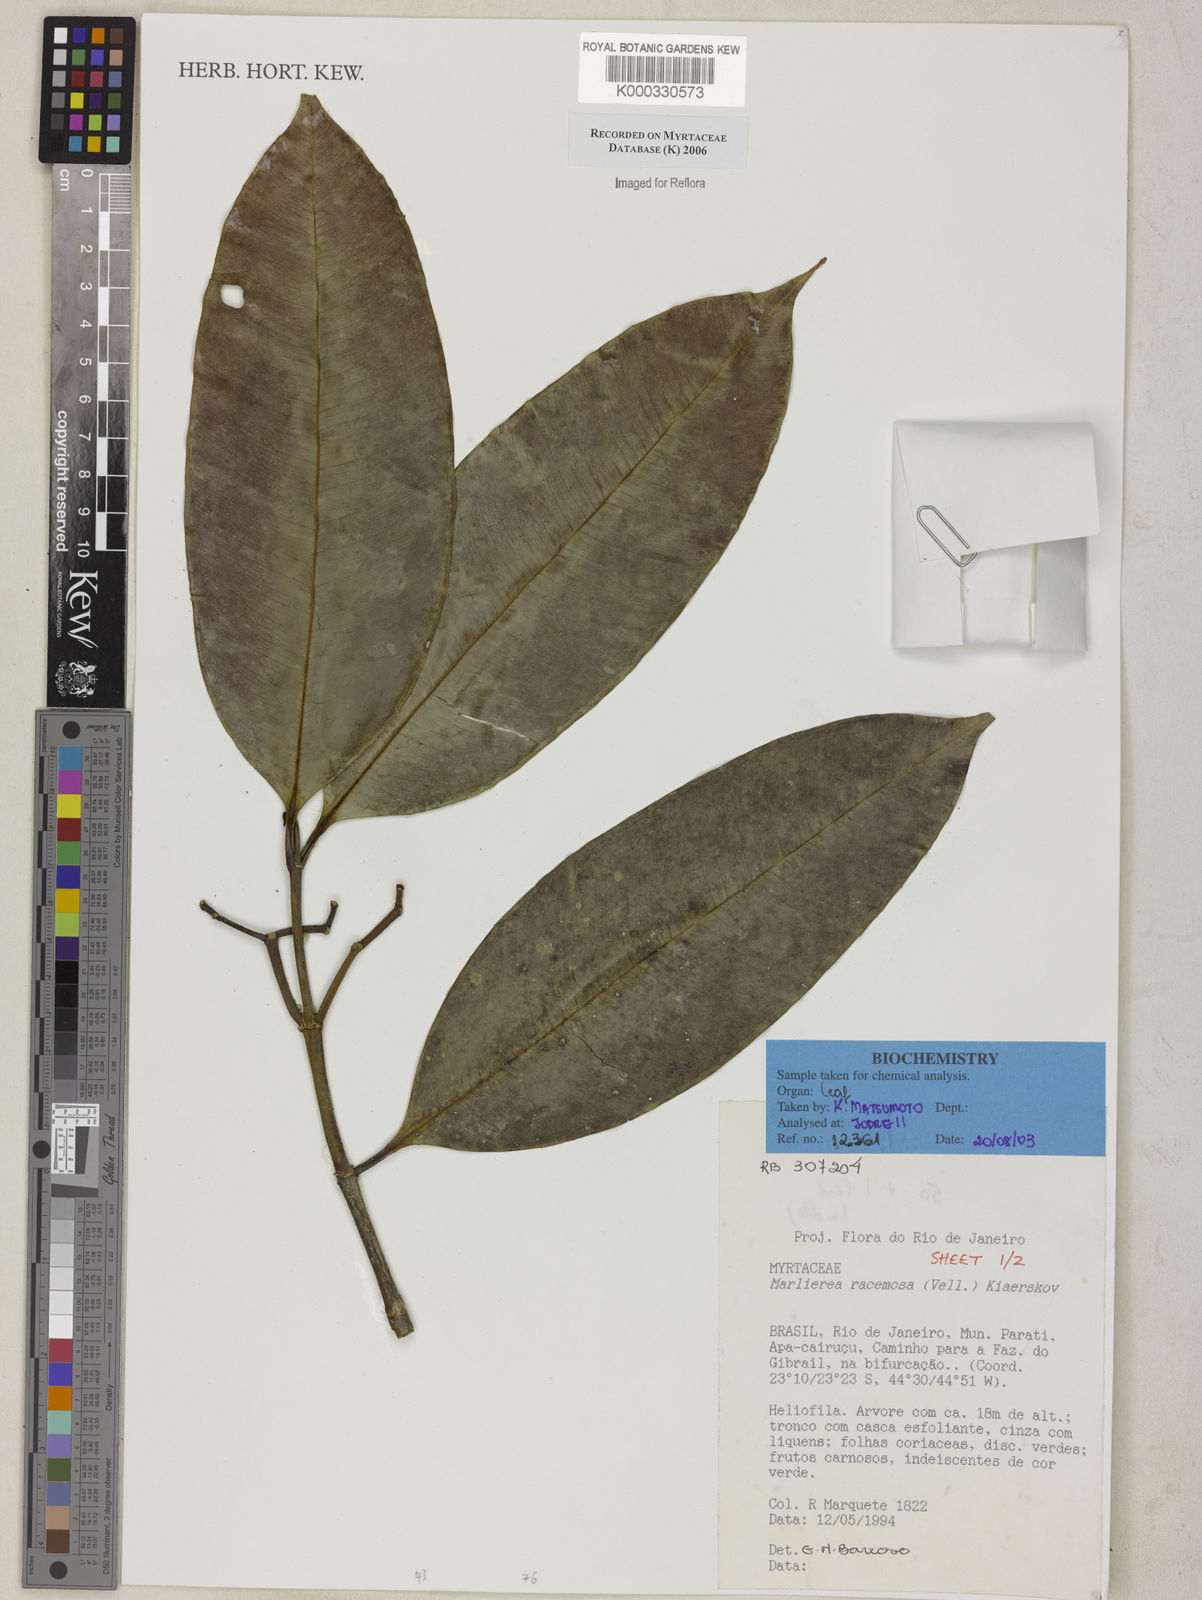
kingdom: Plantae
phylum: Tracheophyta
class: Magnoliopsida
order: Myrtales
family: Myrtaceae
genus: Myrcia
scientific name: Myrcia vellozoi
